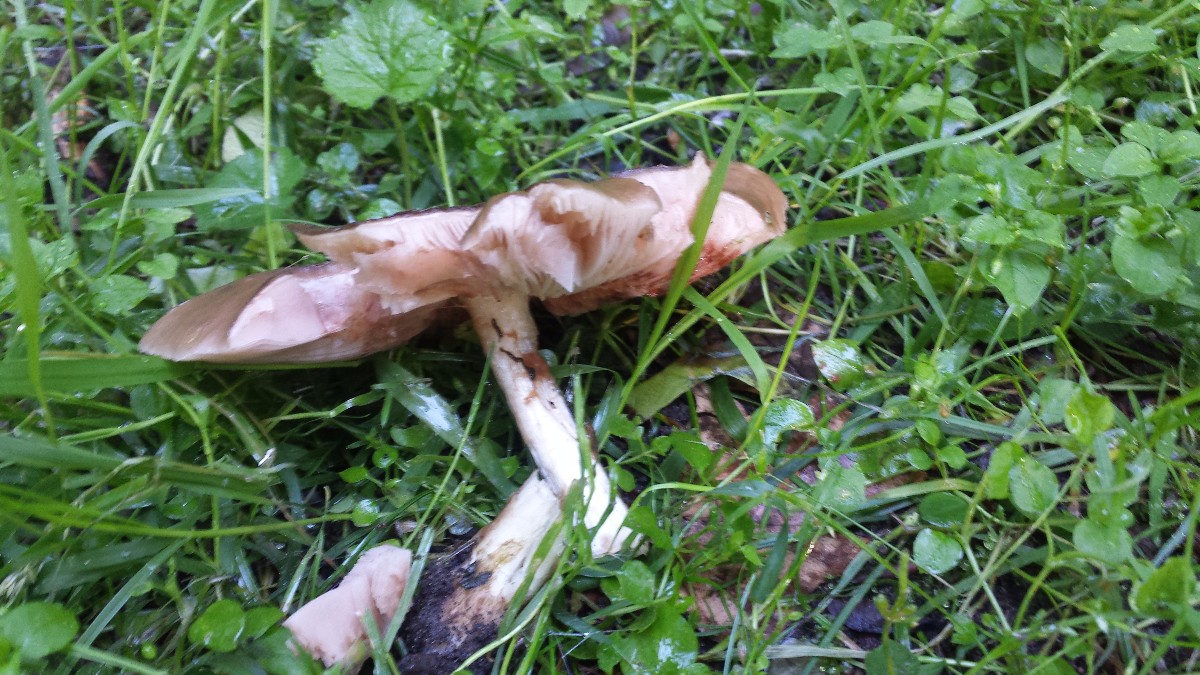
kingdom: Fungi
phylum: Basidiomycota
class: Agaricomycetes
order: Agaricales
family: Pluteaceae
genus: Pluteus
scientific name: Pluteus cervinus
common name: sodfarvet skærmhat
